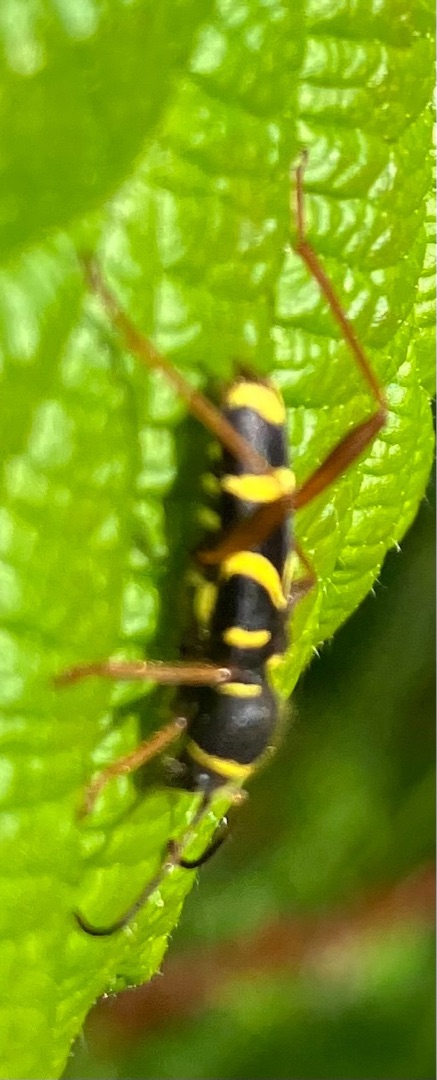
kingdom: Animalia
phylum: Arthropoda
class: Insecta
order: Coleoptera
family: Cerambycidae
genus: Clytus
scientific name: Clytus arietis
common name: Lille hvepsebuk
